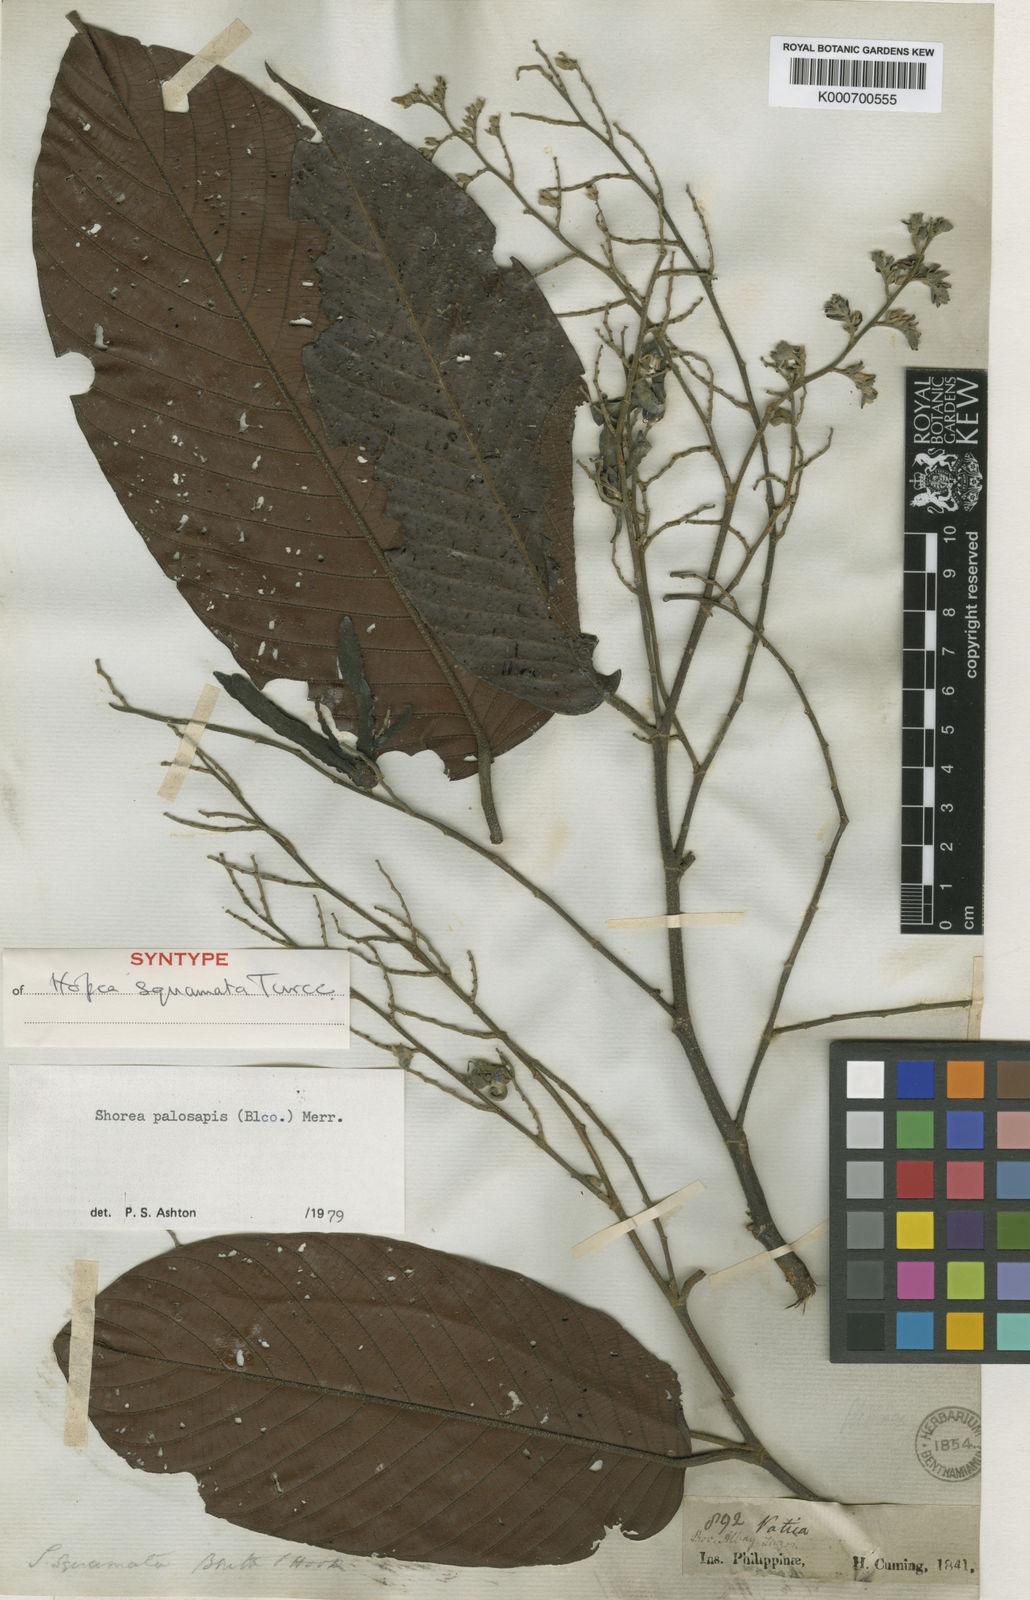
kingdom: Plantae
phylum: Tracheophyta
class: Magnoliopsida
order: Malvales
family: Dipterocarpaceae
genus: Shorea
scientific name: Shorea palosapis
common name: Philippine mahogany
